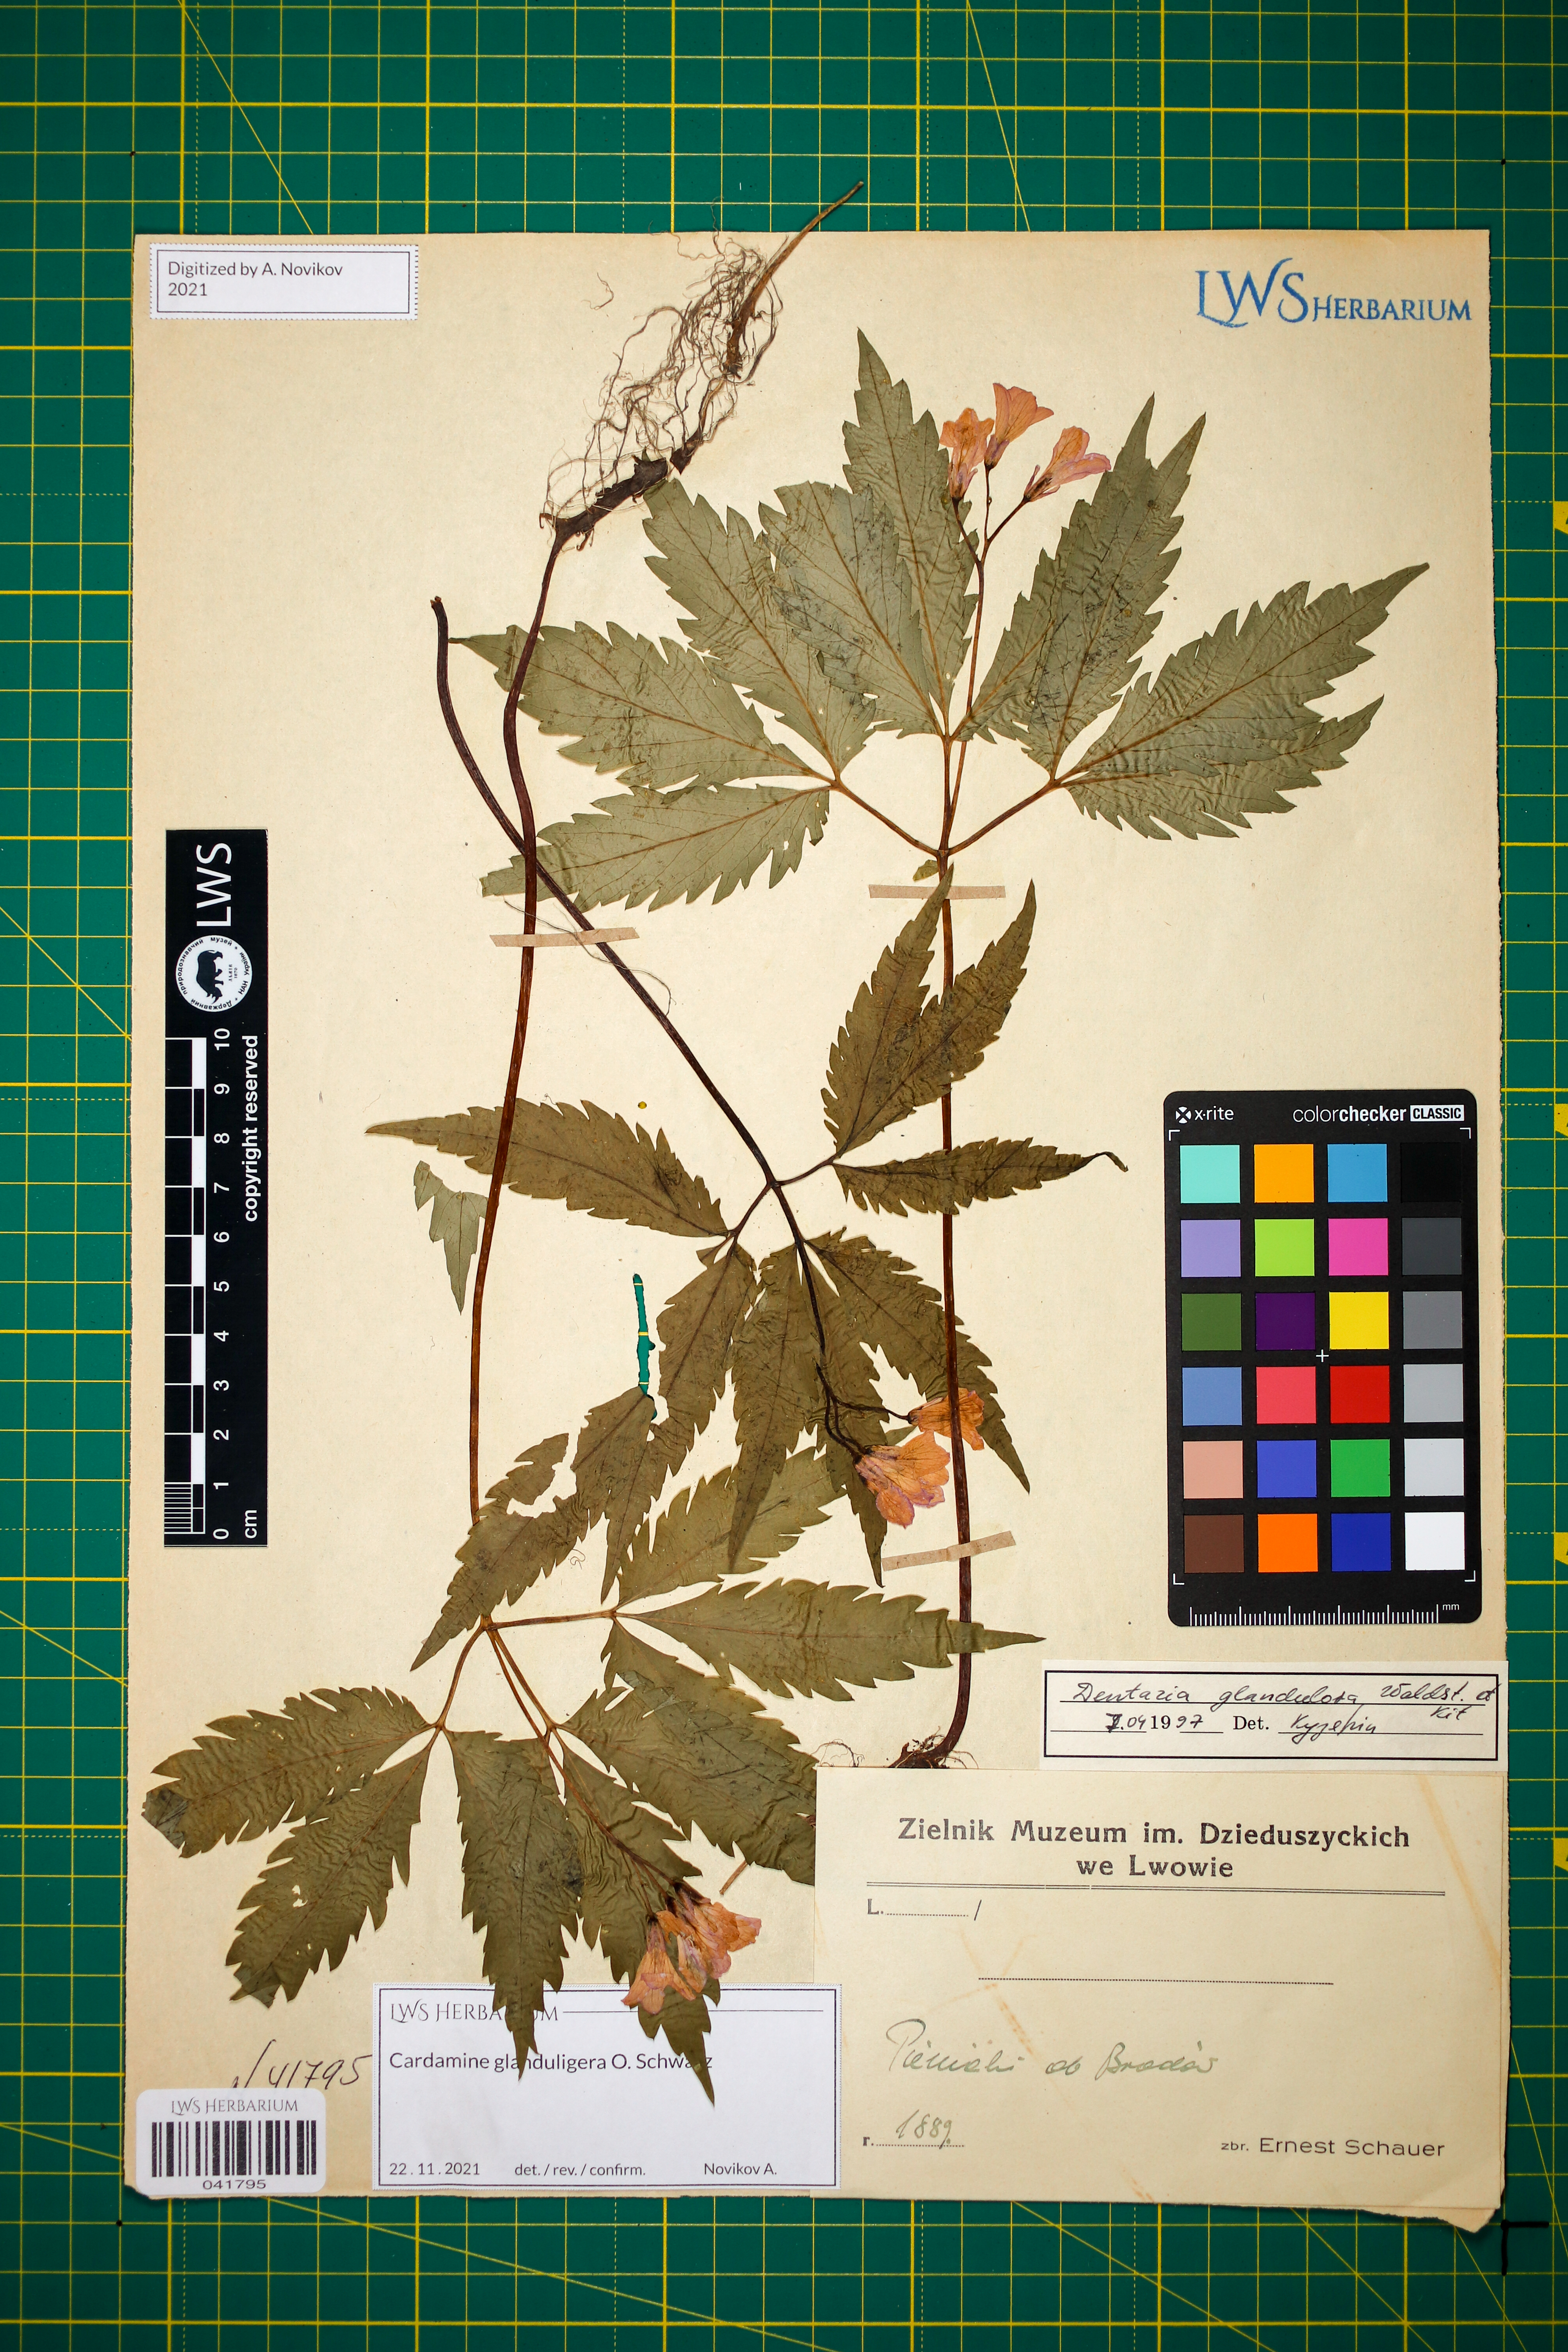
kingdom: Plantae
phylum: Tracheophyta
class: Magnoliopsida
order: Brassicales
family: Brassicaceae
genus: Cardamine
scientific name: Cardamine glanduligera
